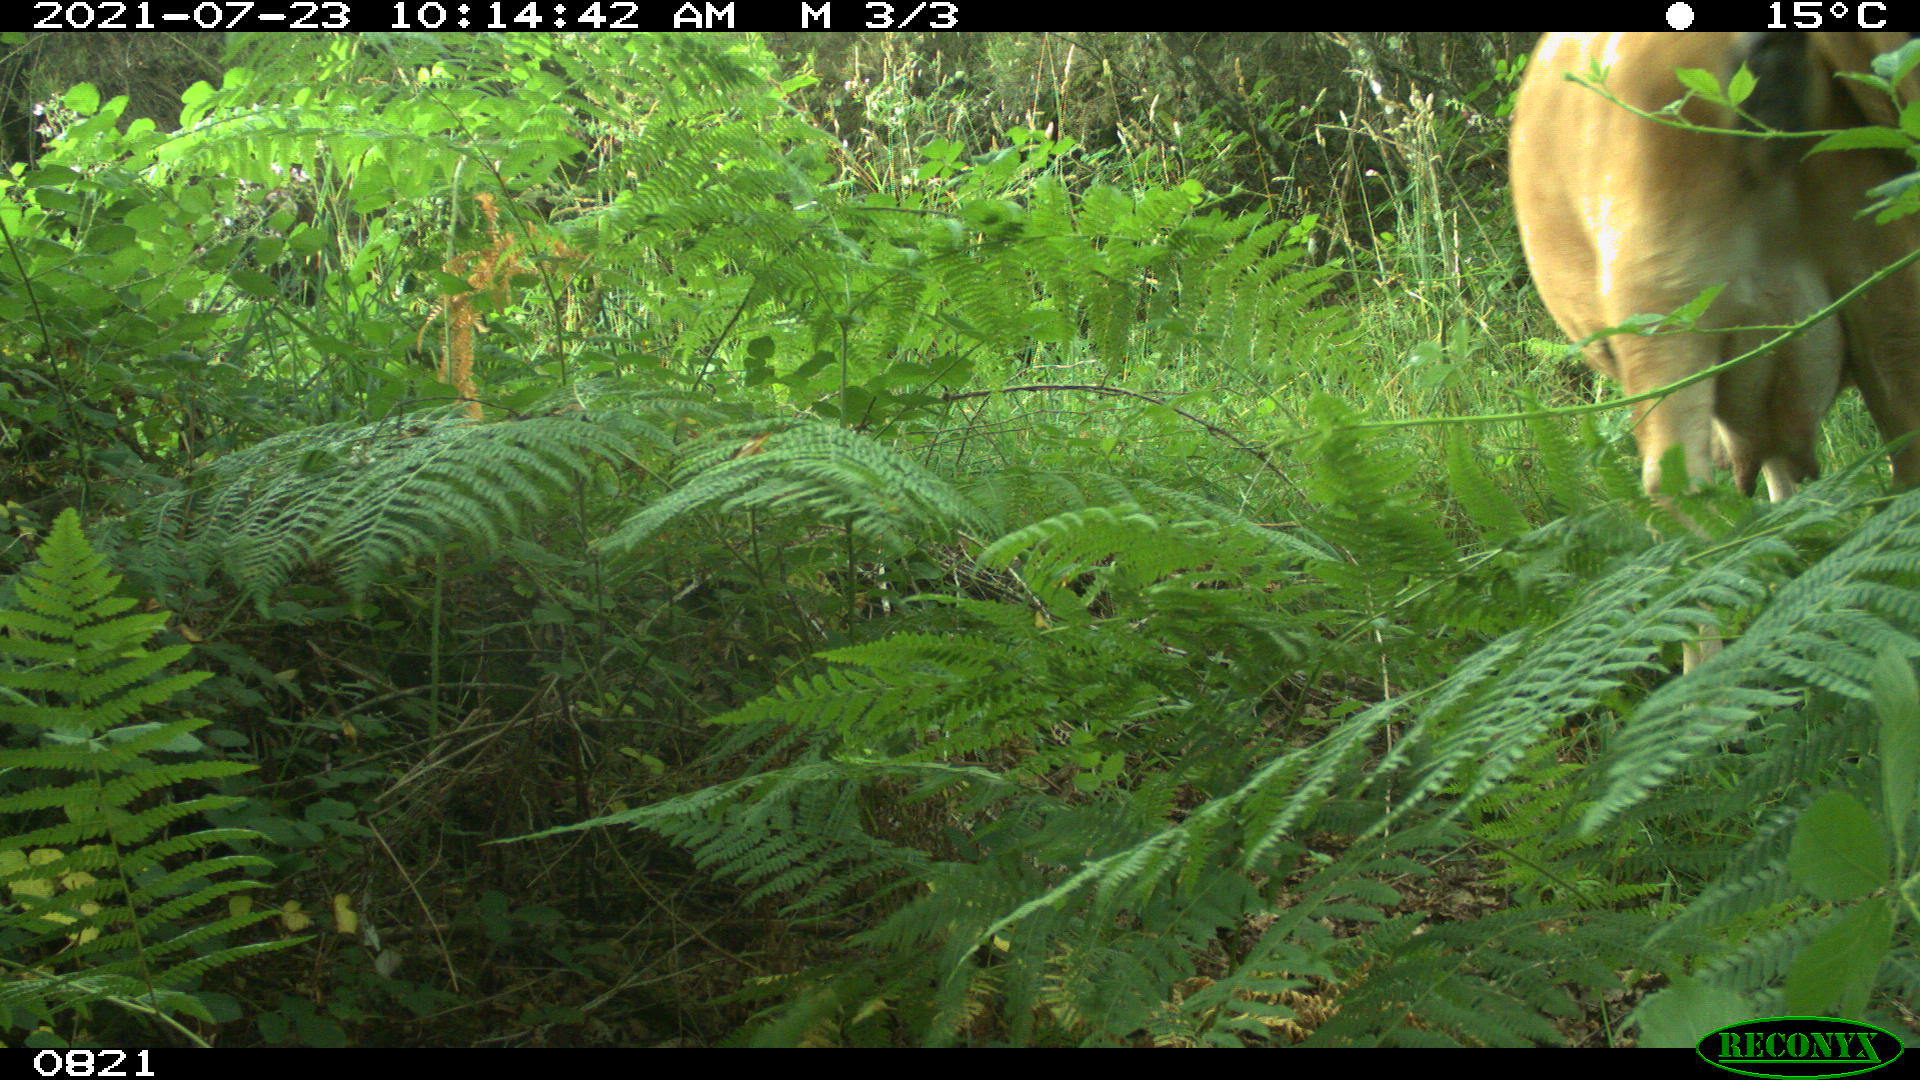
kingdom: Animalia
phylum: Chordata
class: Mammalia
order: Artiodactyla
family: Bovidae
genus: Bos
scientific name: Bos taurus
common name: Domesticated cattle
